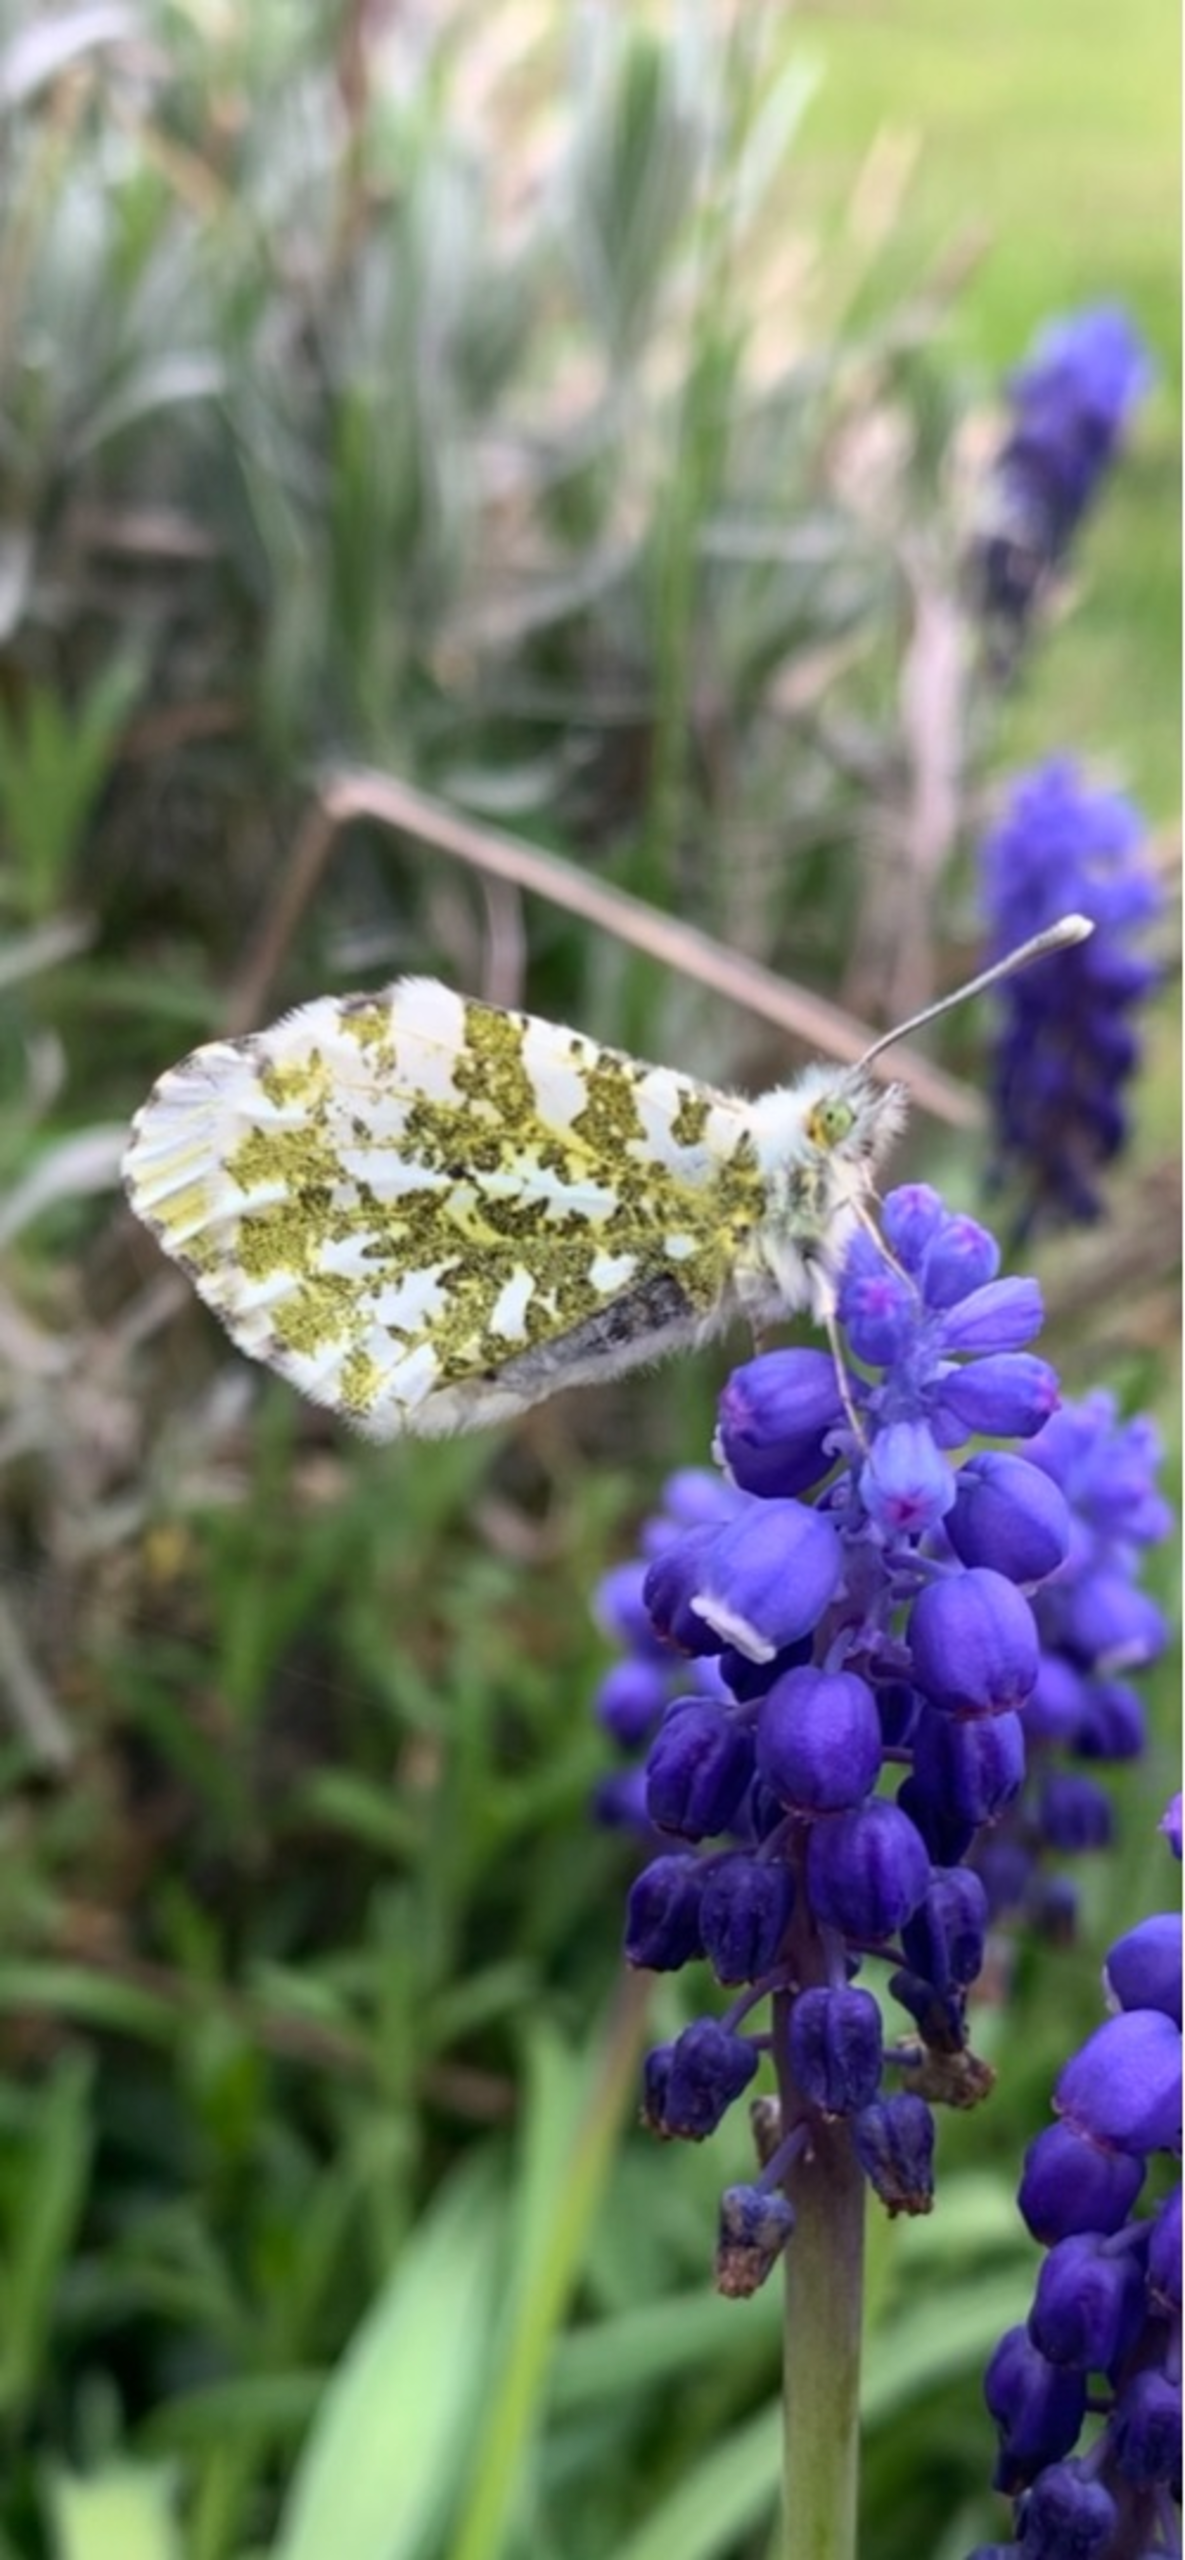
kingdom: Animalia
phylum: Arthropoda
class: Insecta
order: Lepidoptera
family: Pieridae
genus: Anthocharis
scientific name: Anthocharis cardamines
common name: Aurora
